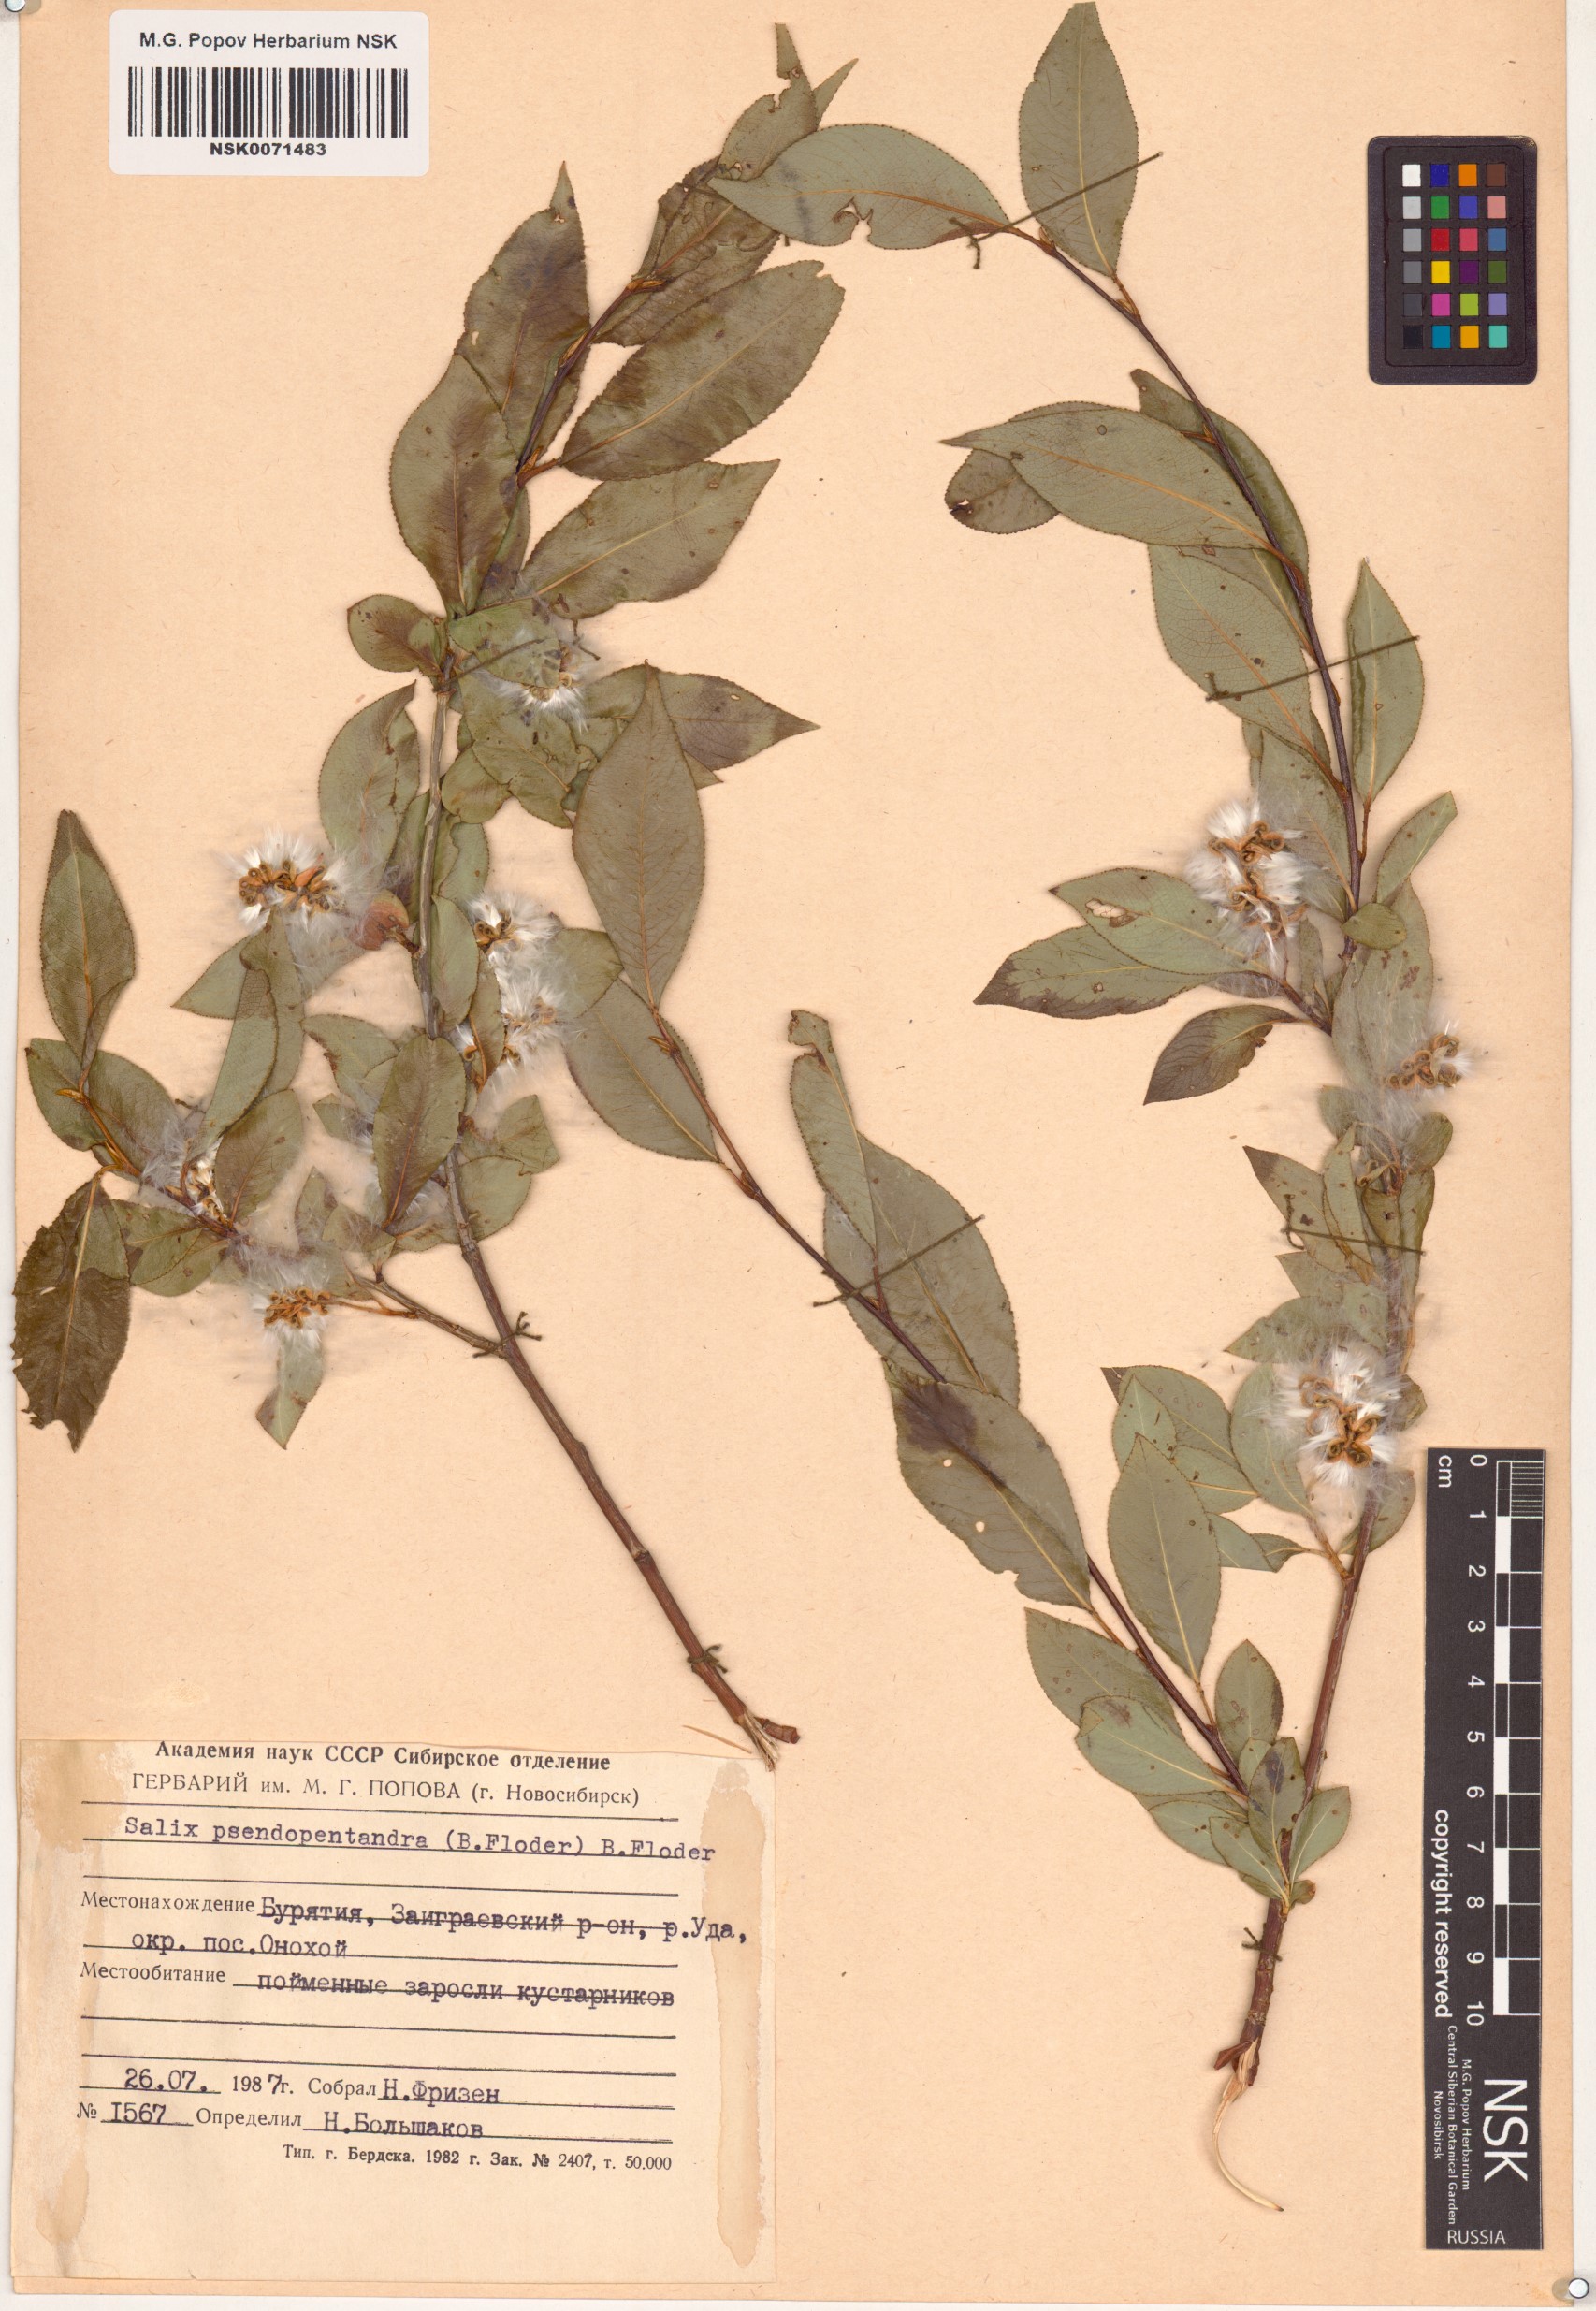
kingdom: Plantae
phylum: Tracheophyta
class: Magnoliopsida
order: Malpighiales
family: Salicaceae
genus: Salix
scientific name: Salix pseudopentandra
